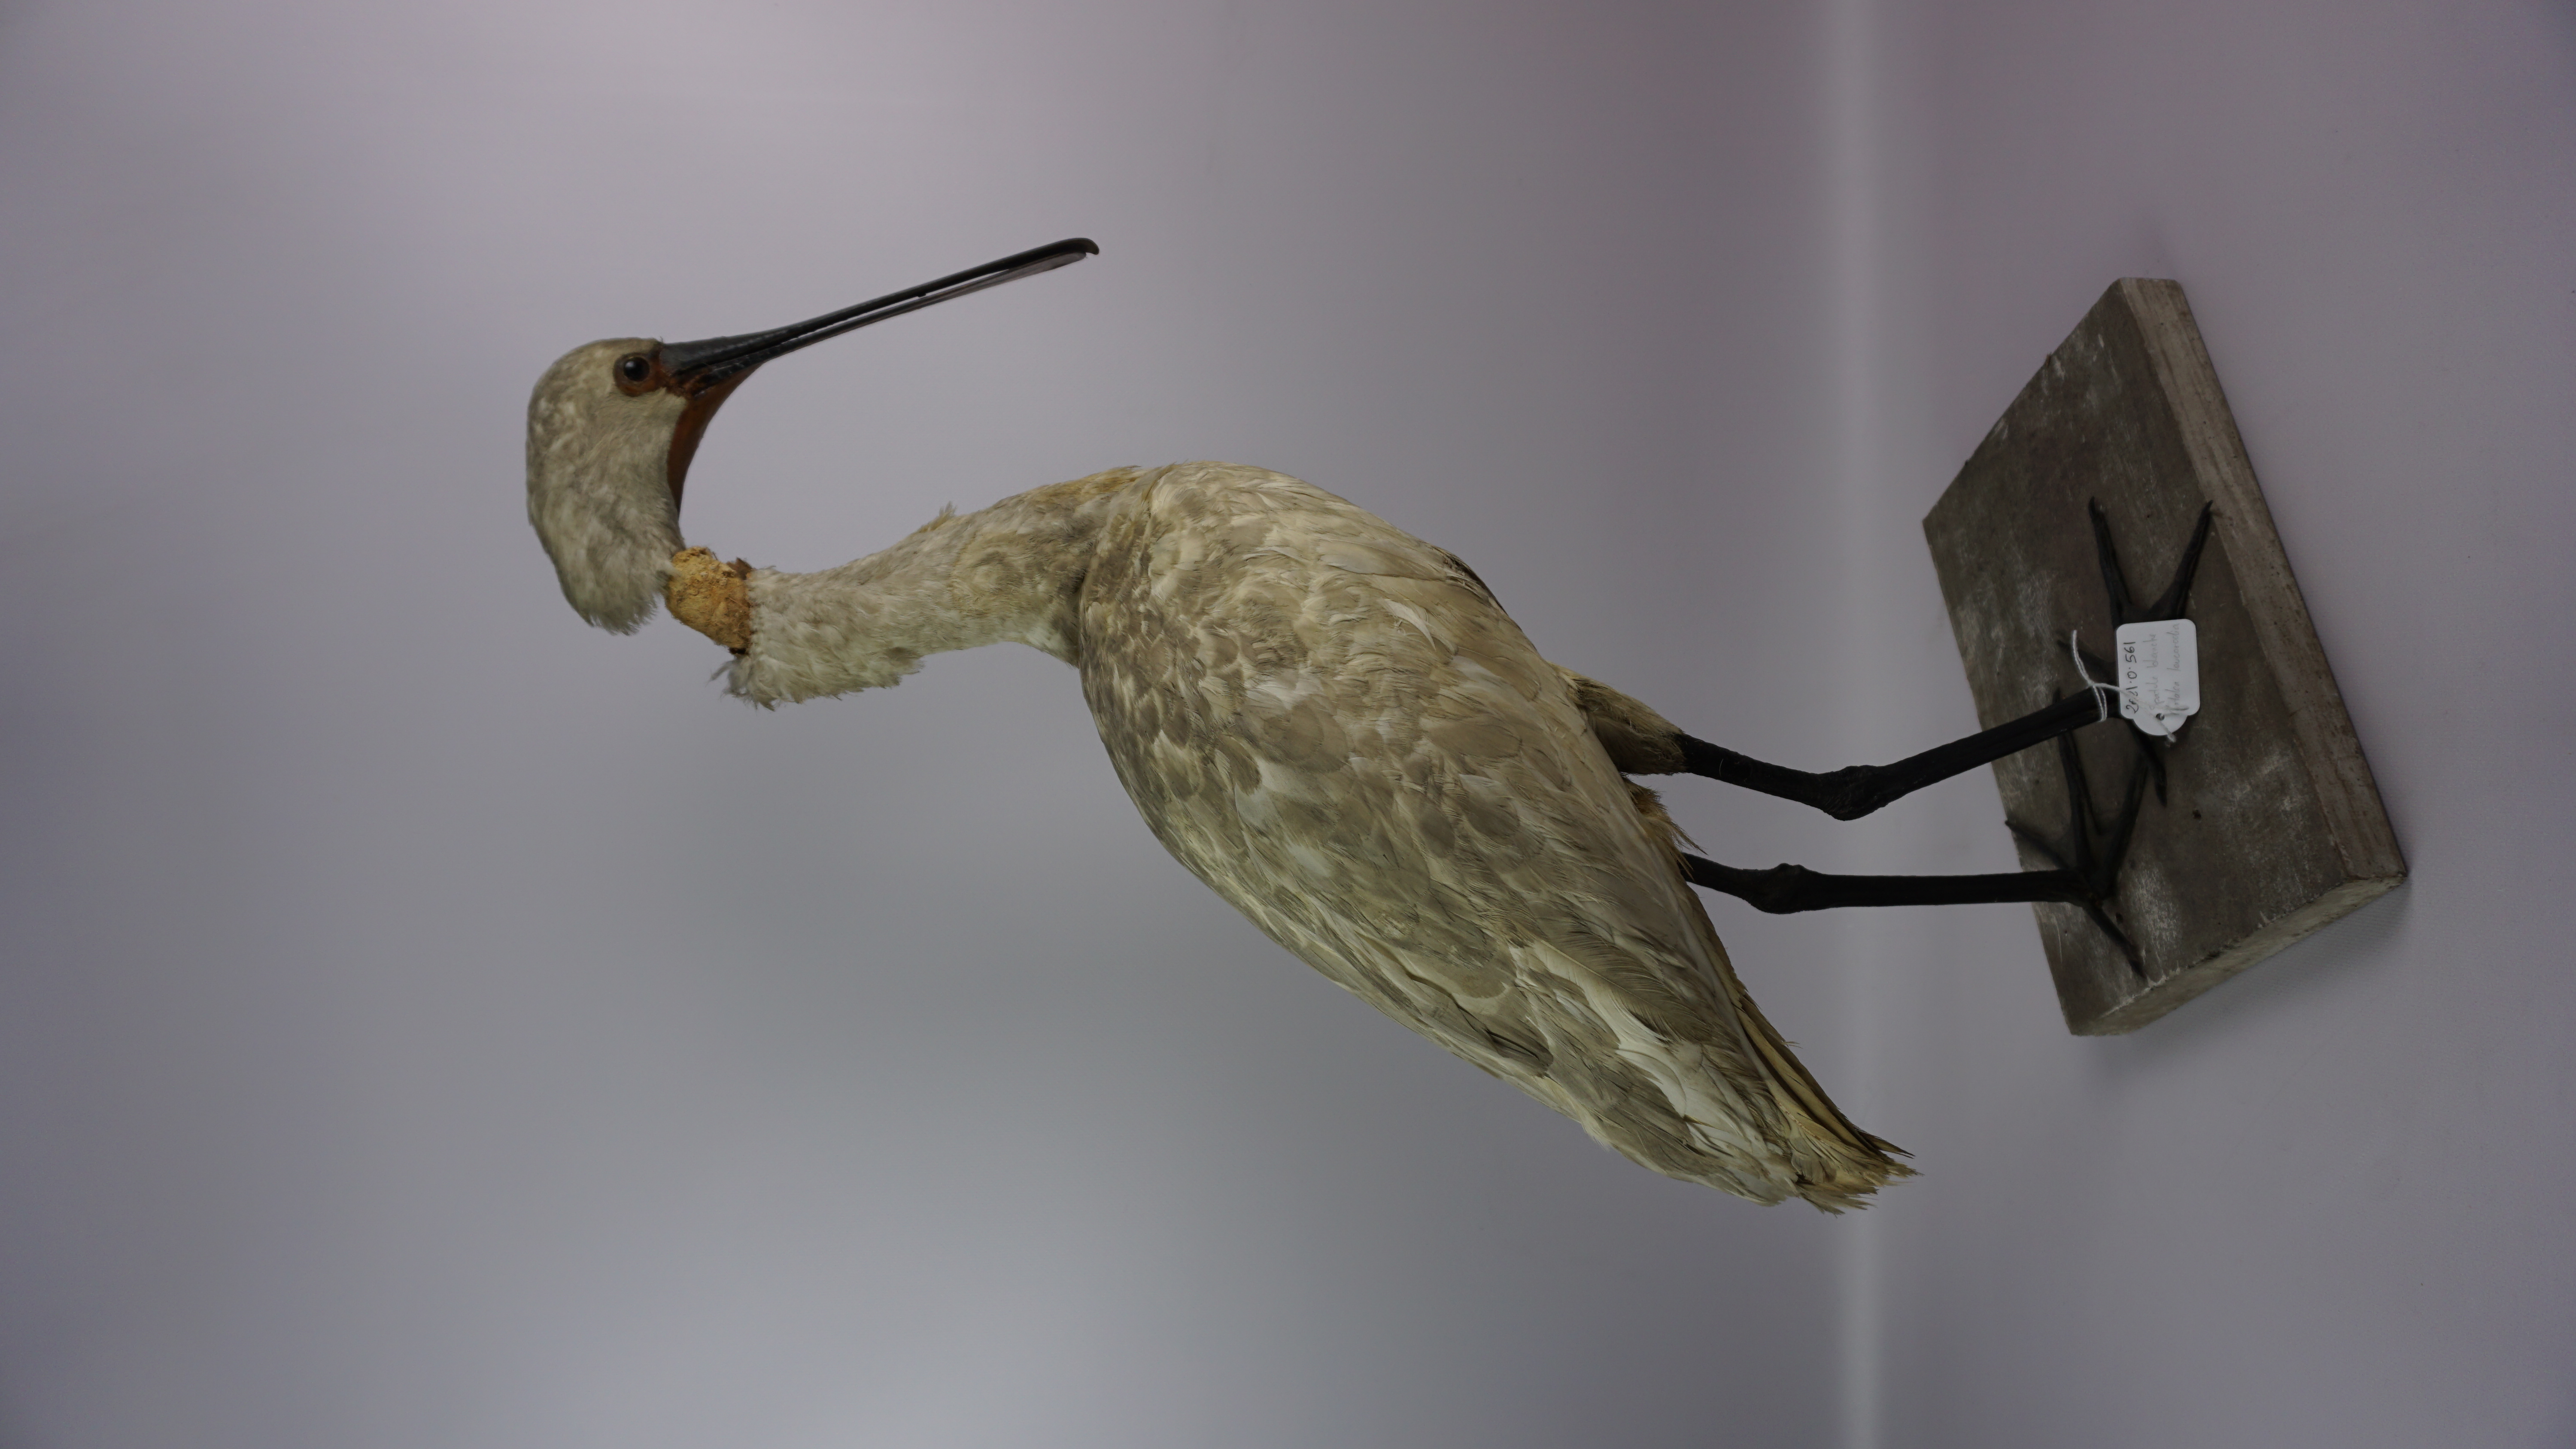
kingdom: Animalia
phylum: Chordata
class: Aves
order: Pelecaniformes
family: Threskiornithidae
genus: Platalea
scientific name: Platalea leucorodia
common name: Eurasian spoonbill
